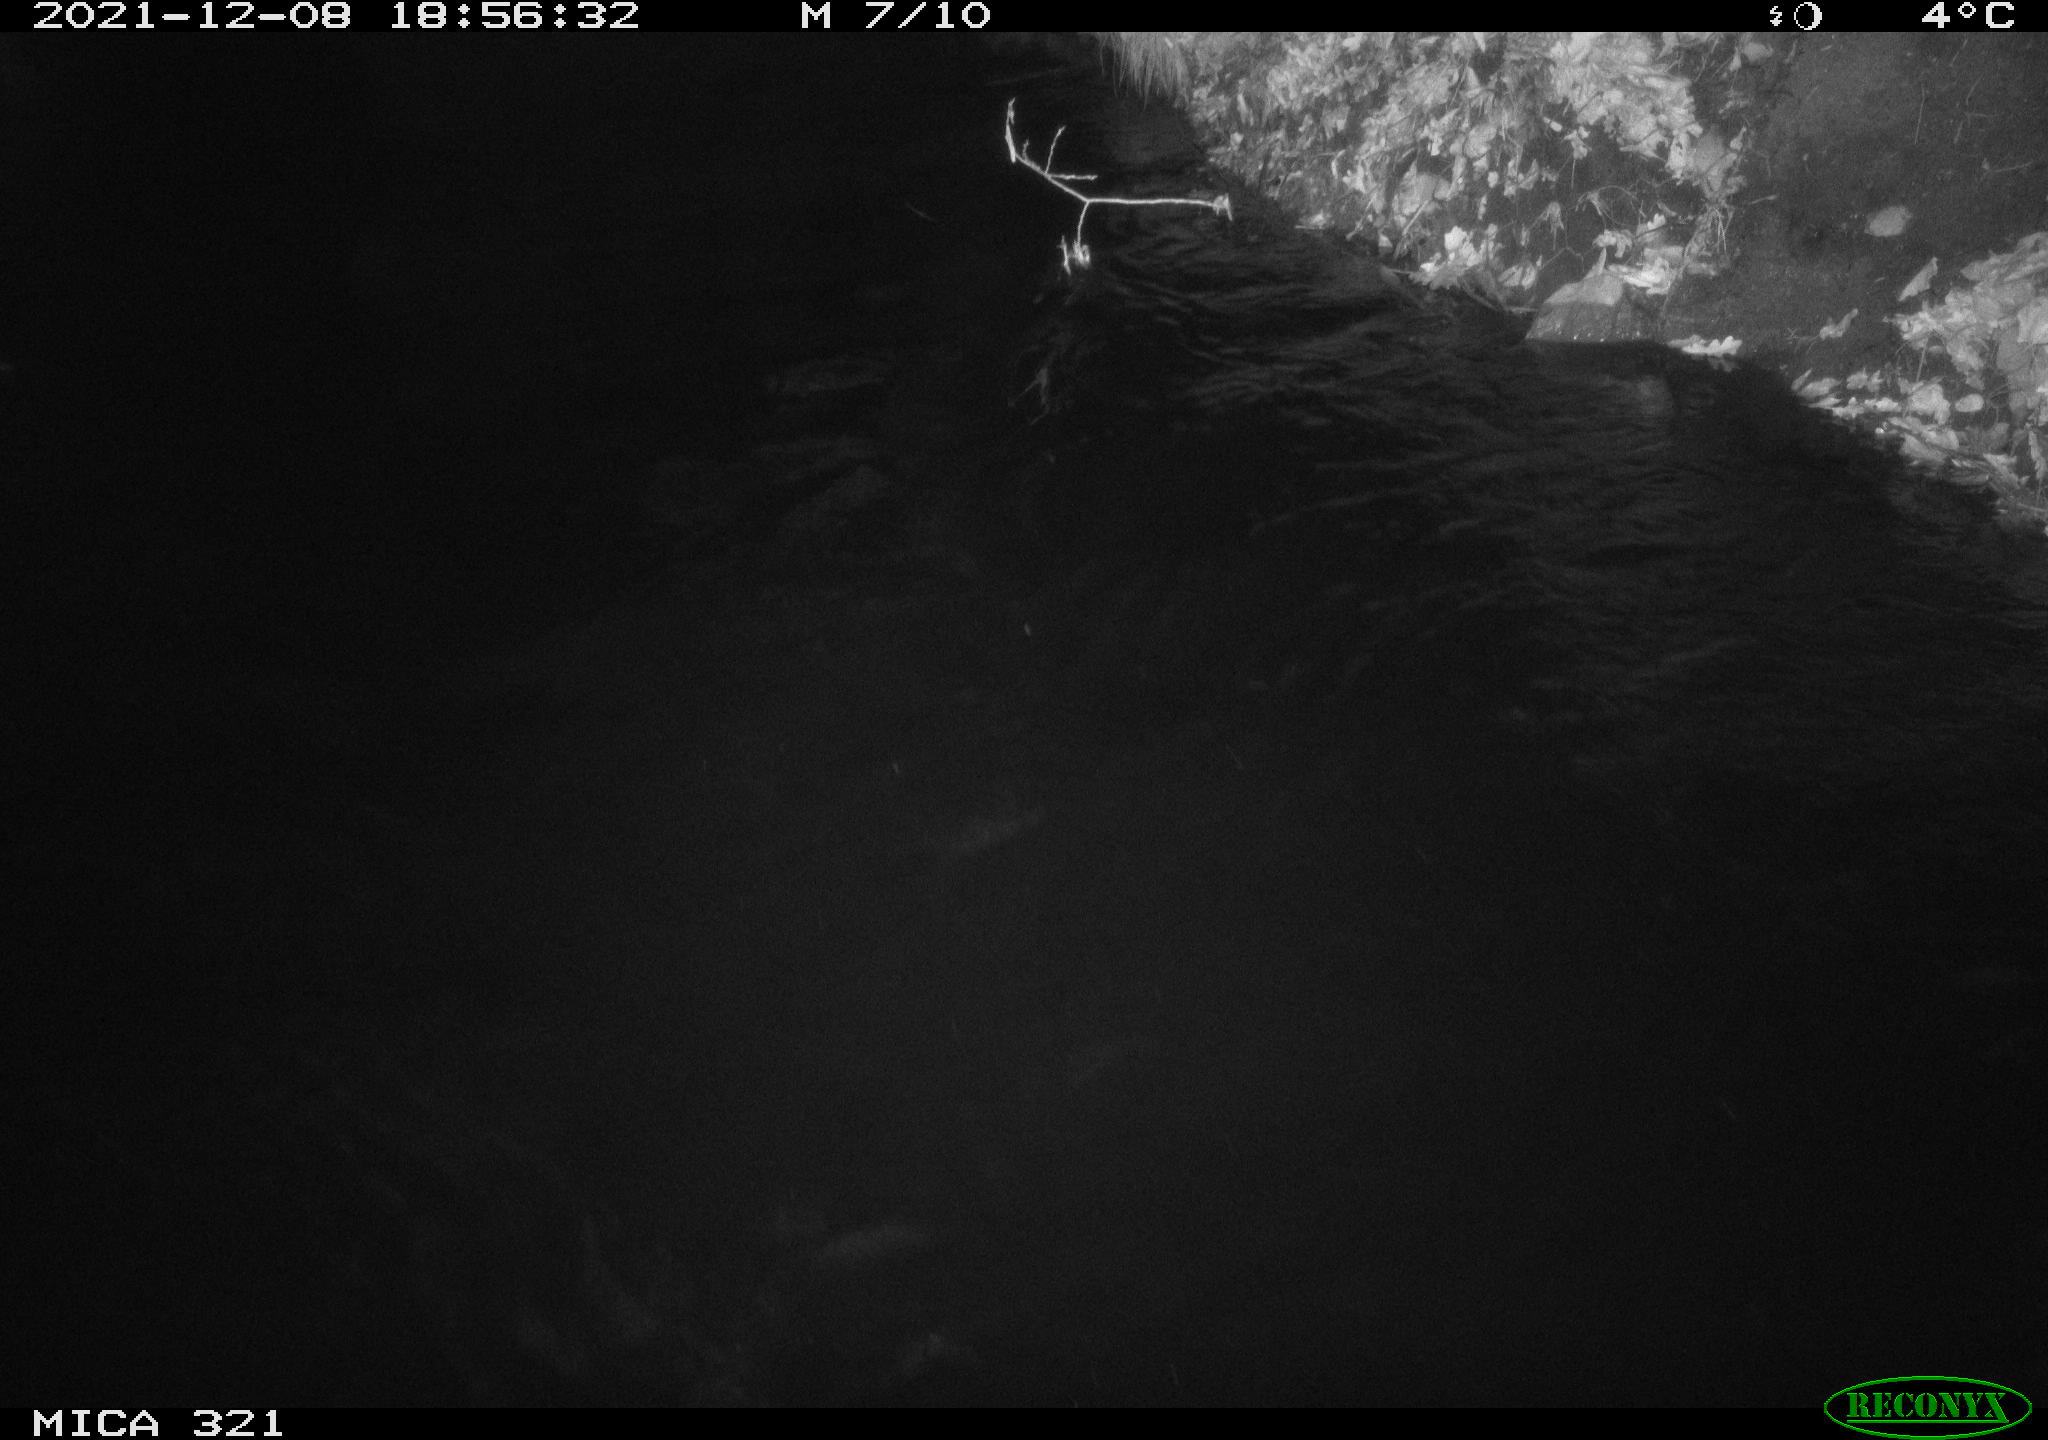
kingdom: Animalia
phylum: Chordata
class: Aves
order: Anseriformes
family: Anatidae
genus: Anas
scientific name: Anas
